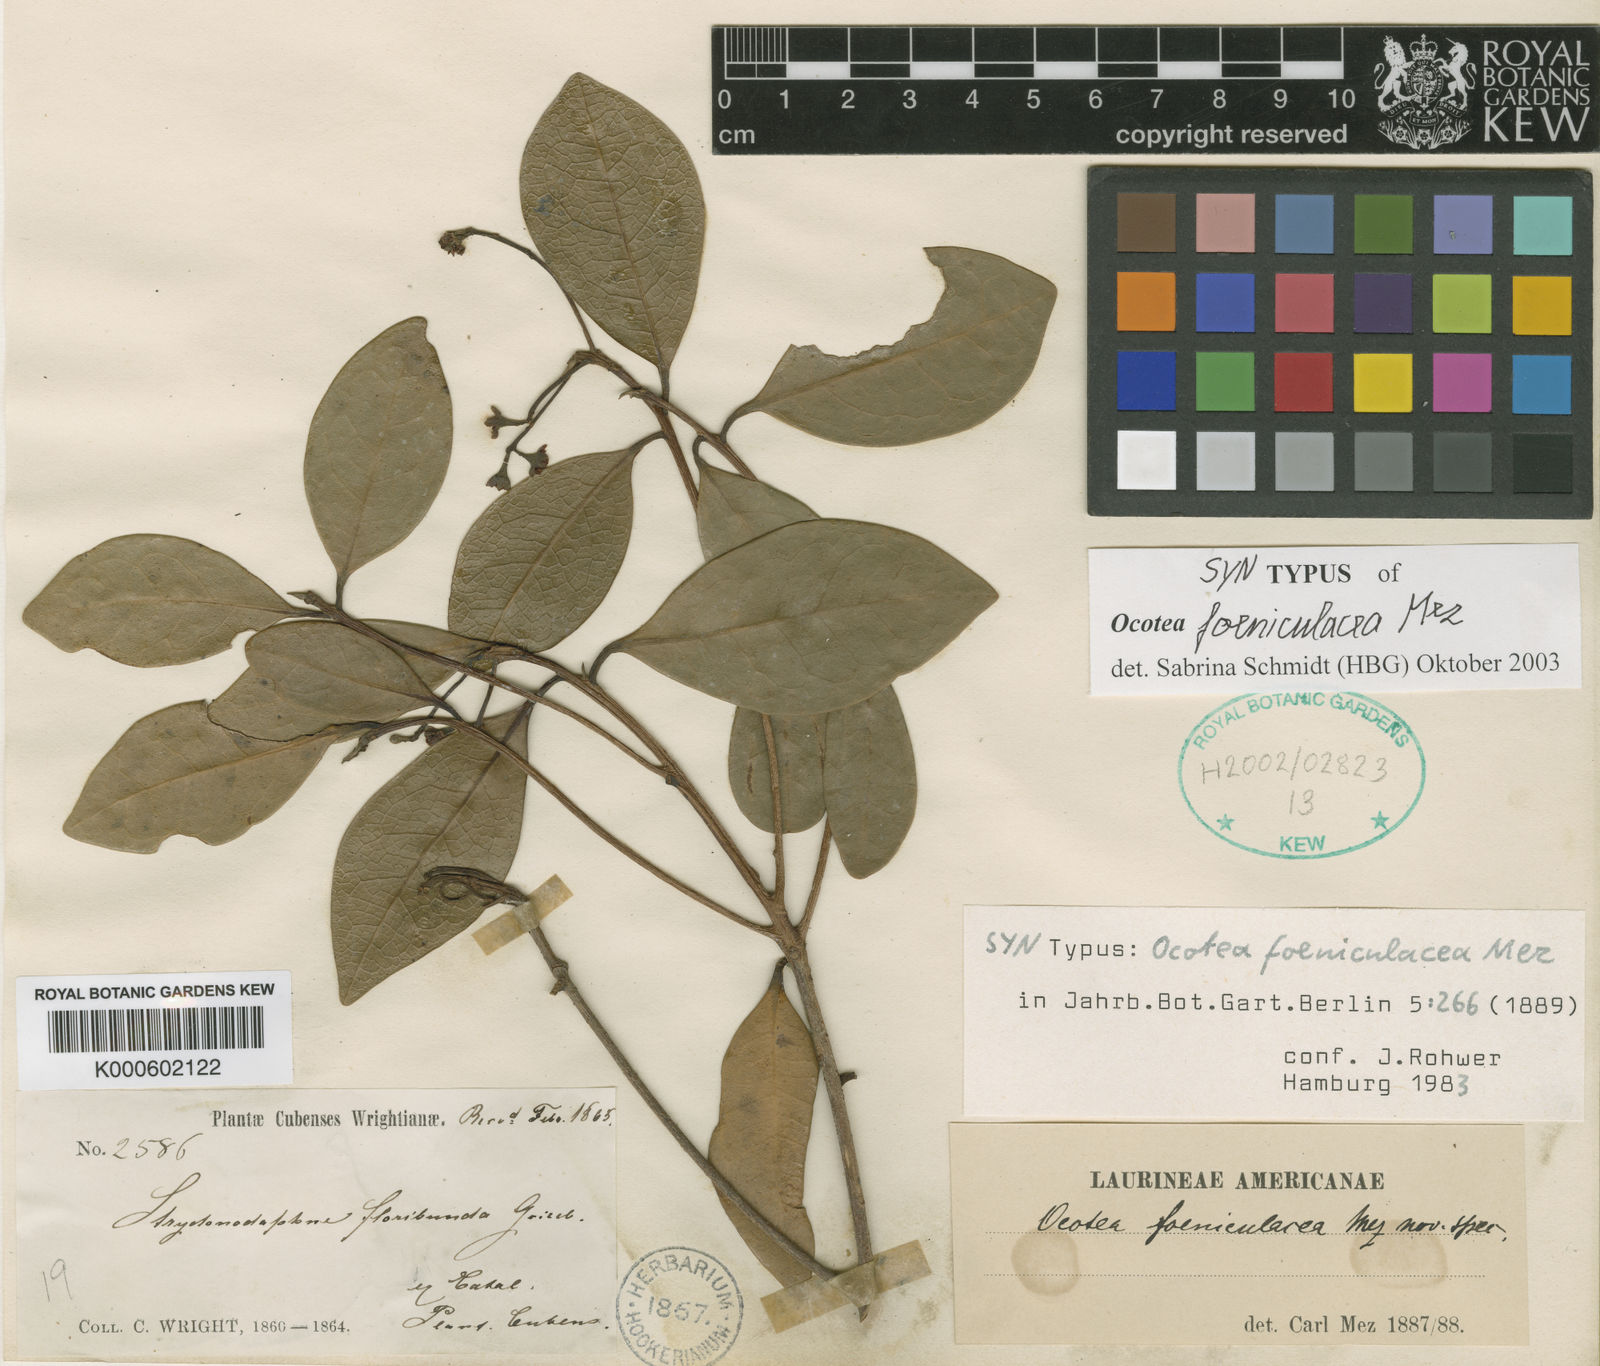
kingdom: Plantae
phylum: Tracheophyta
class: Magnoliopsida
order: Laurales
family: Lauraceae
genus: Ocotea
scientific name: Ocotea foeniculacea
